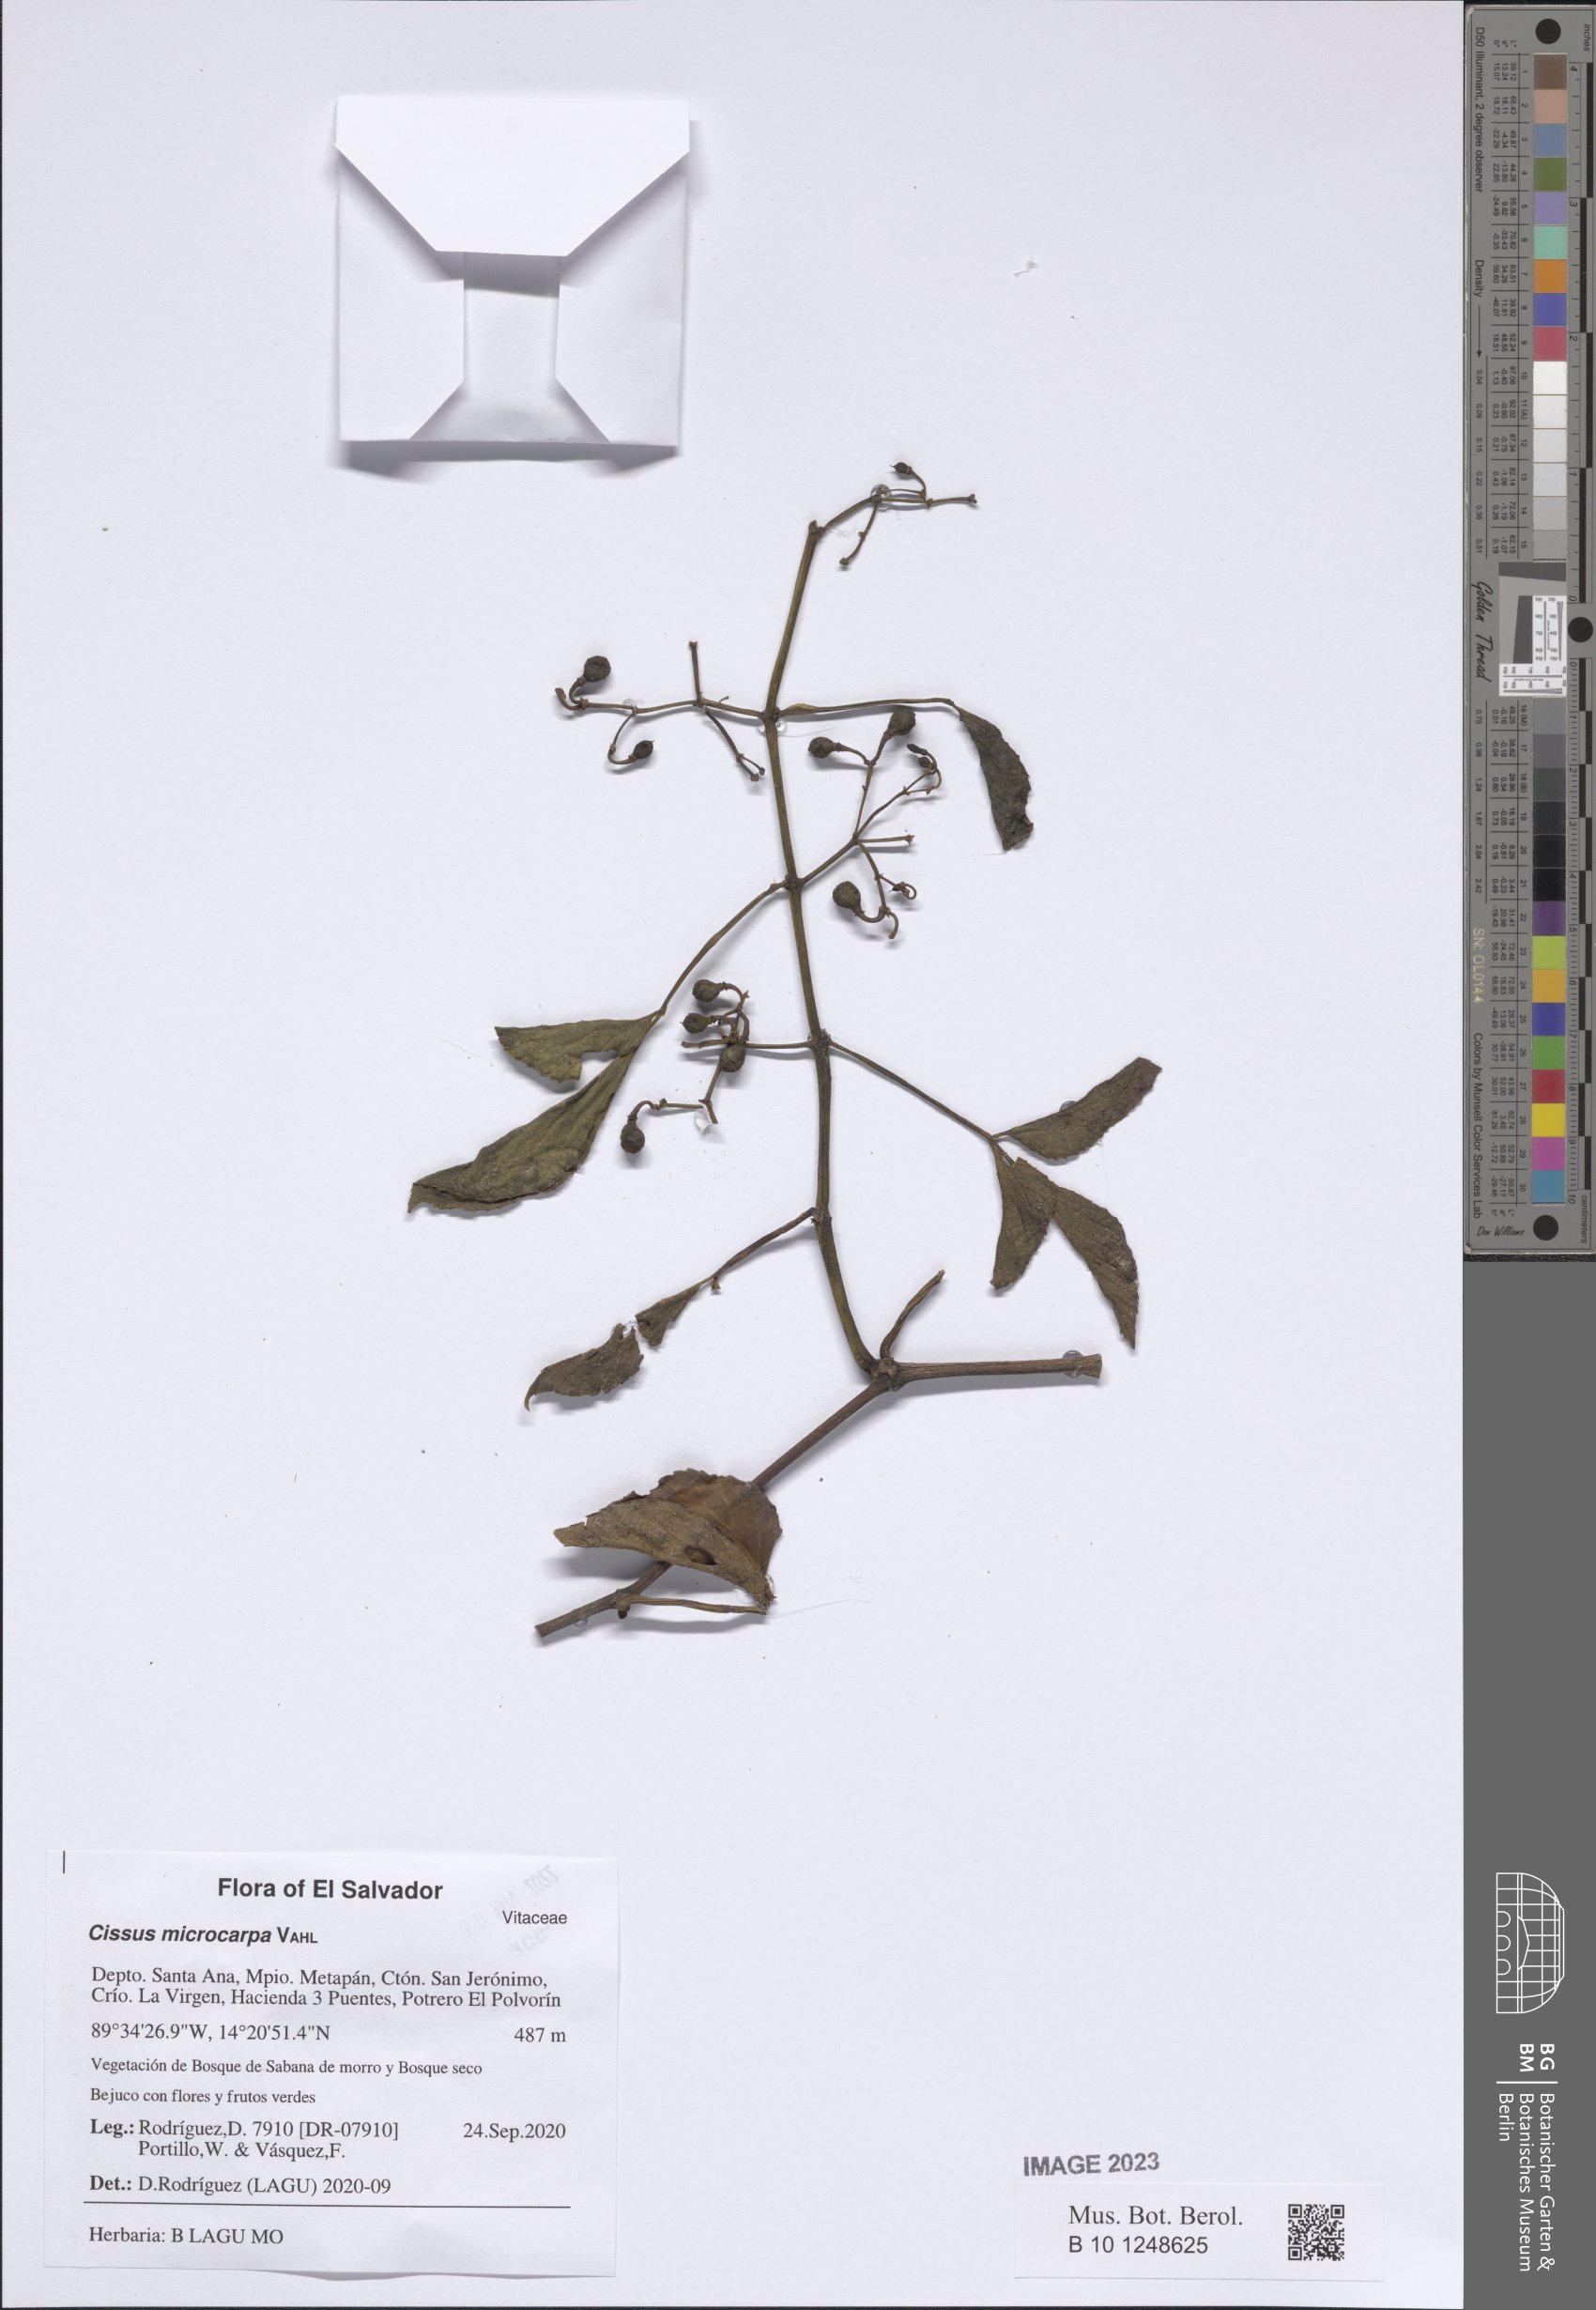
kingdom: Plantae
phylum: Tracheophyta
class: Magnoliopsida
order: Vitales
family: Vitaceae
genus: Cissus
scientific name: Cissus microcarpa
